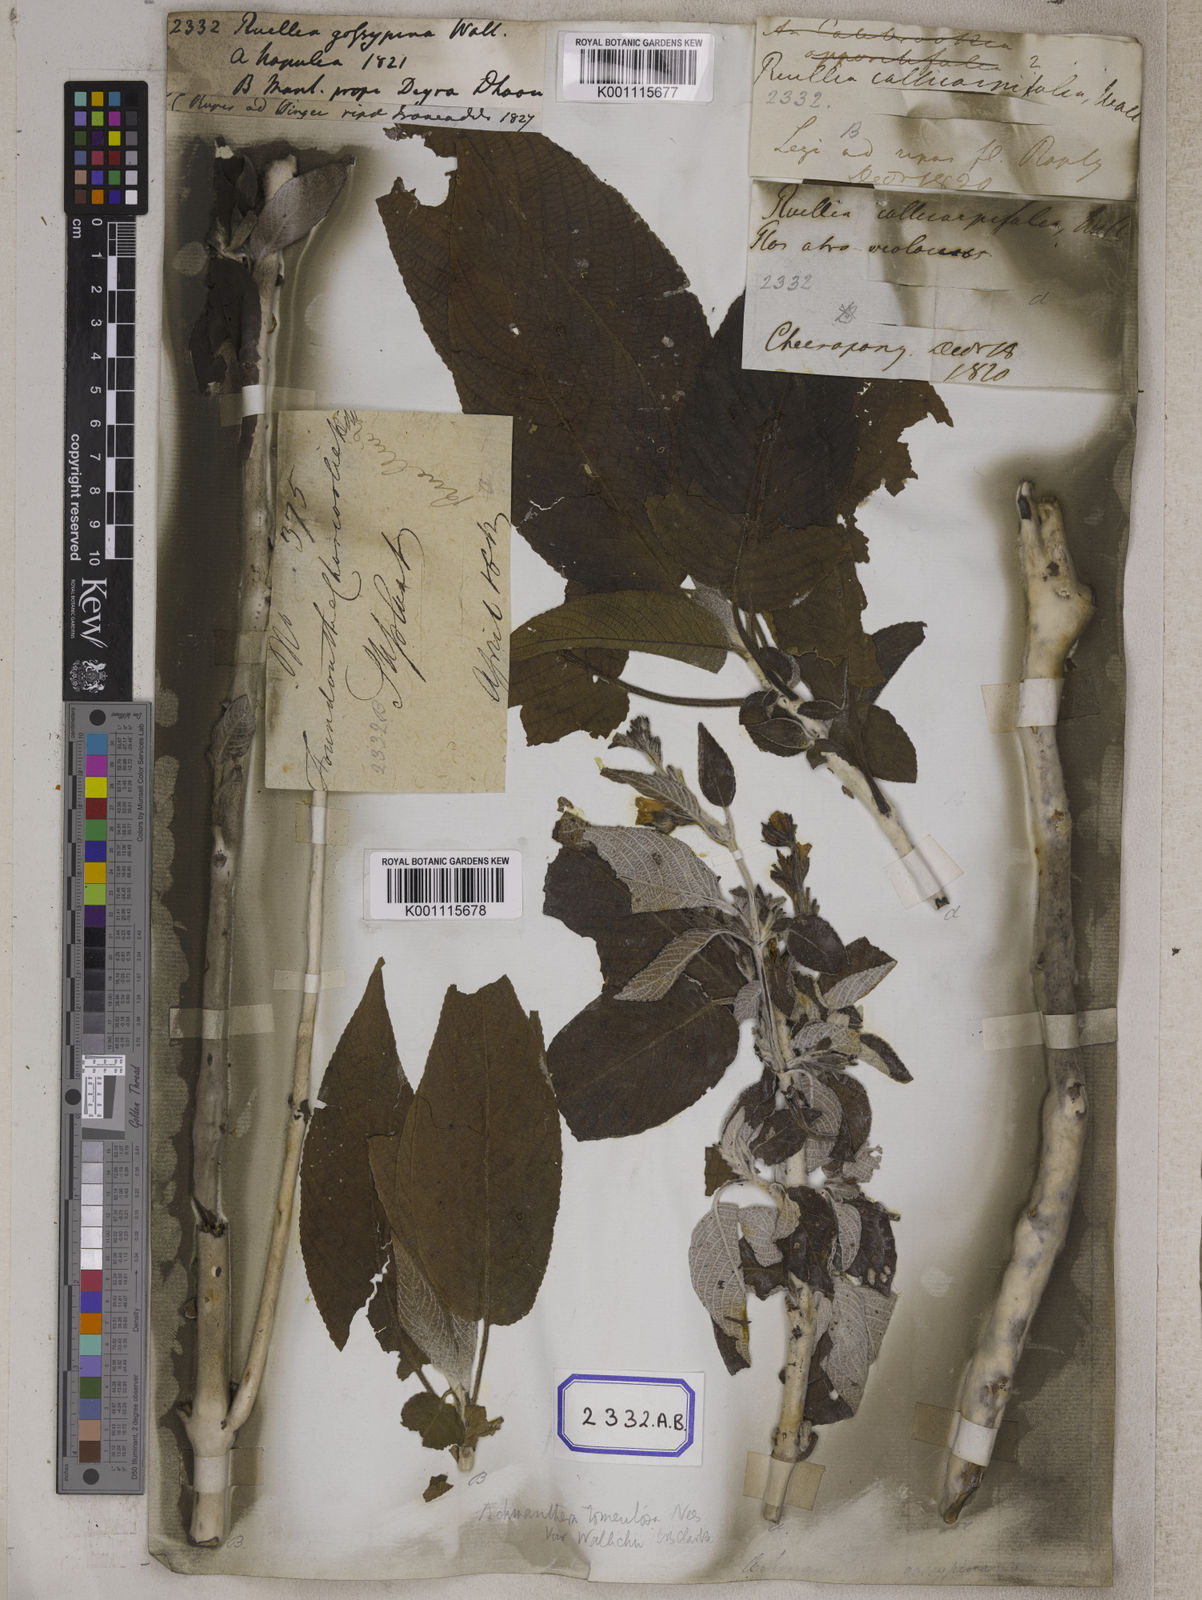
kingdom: Plantae
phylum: Tracheophyta
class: Magnoliopsida
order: Lamiales
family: Acanthaceae
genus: Ruellia
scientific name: Ruellia
